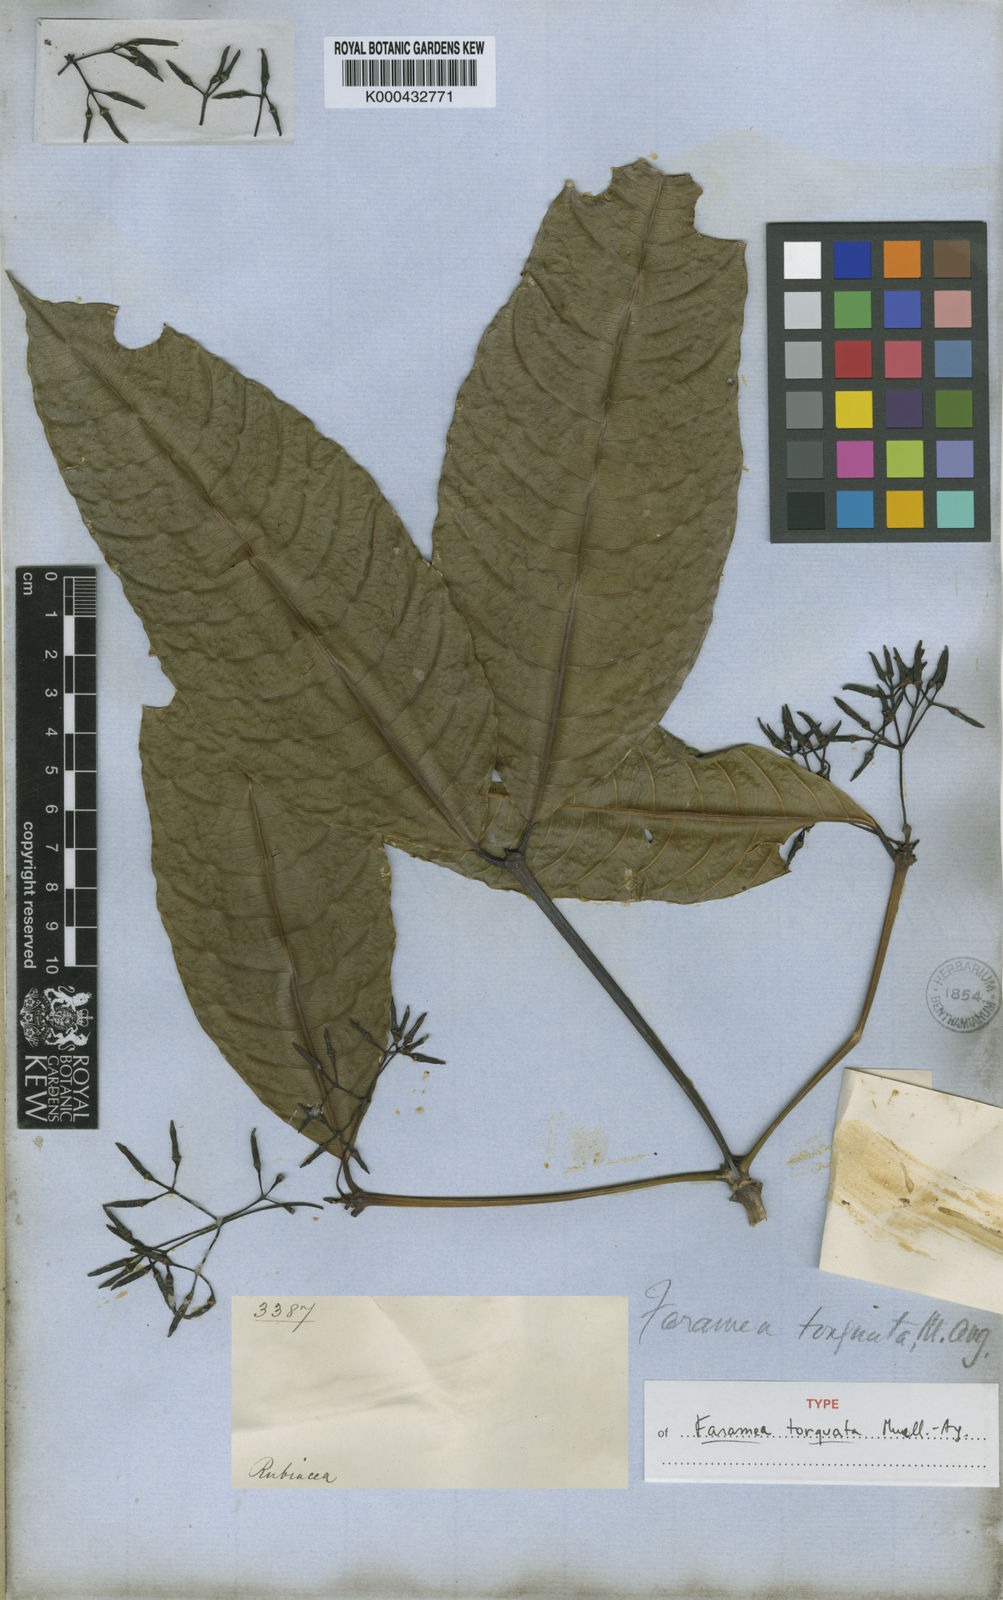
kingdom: Plantae
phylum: Tracheophyta
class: Magnoliopsida
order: Gentianales
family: Rubiaceae
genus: Faramea
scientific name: Faramea
